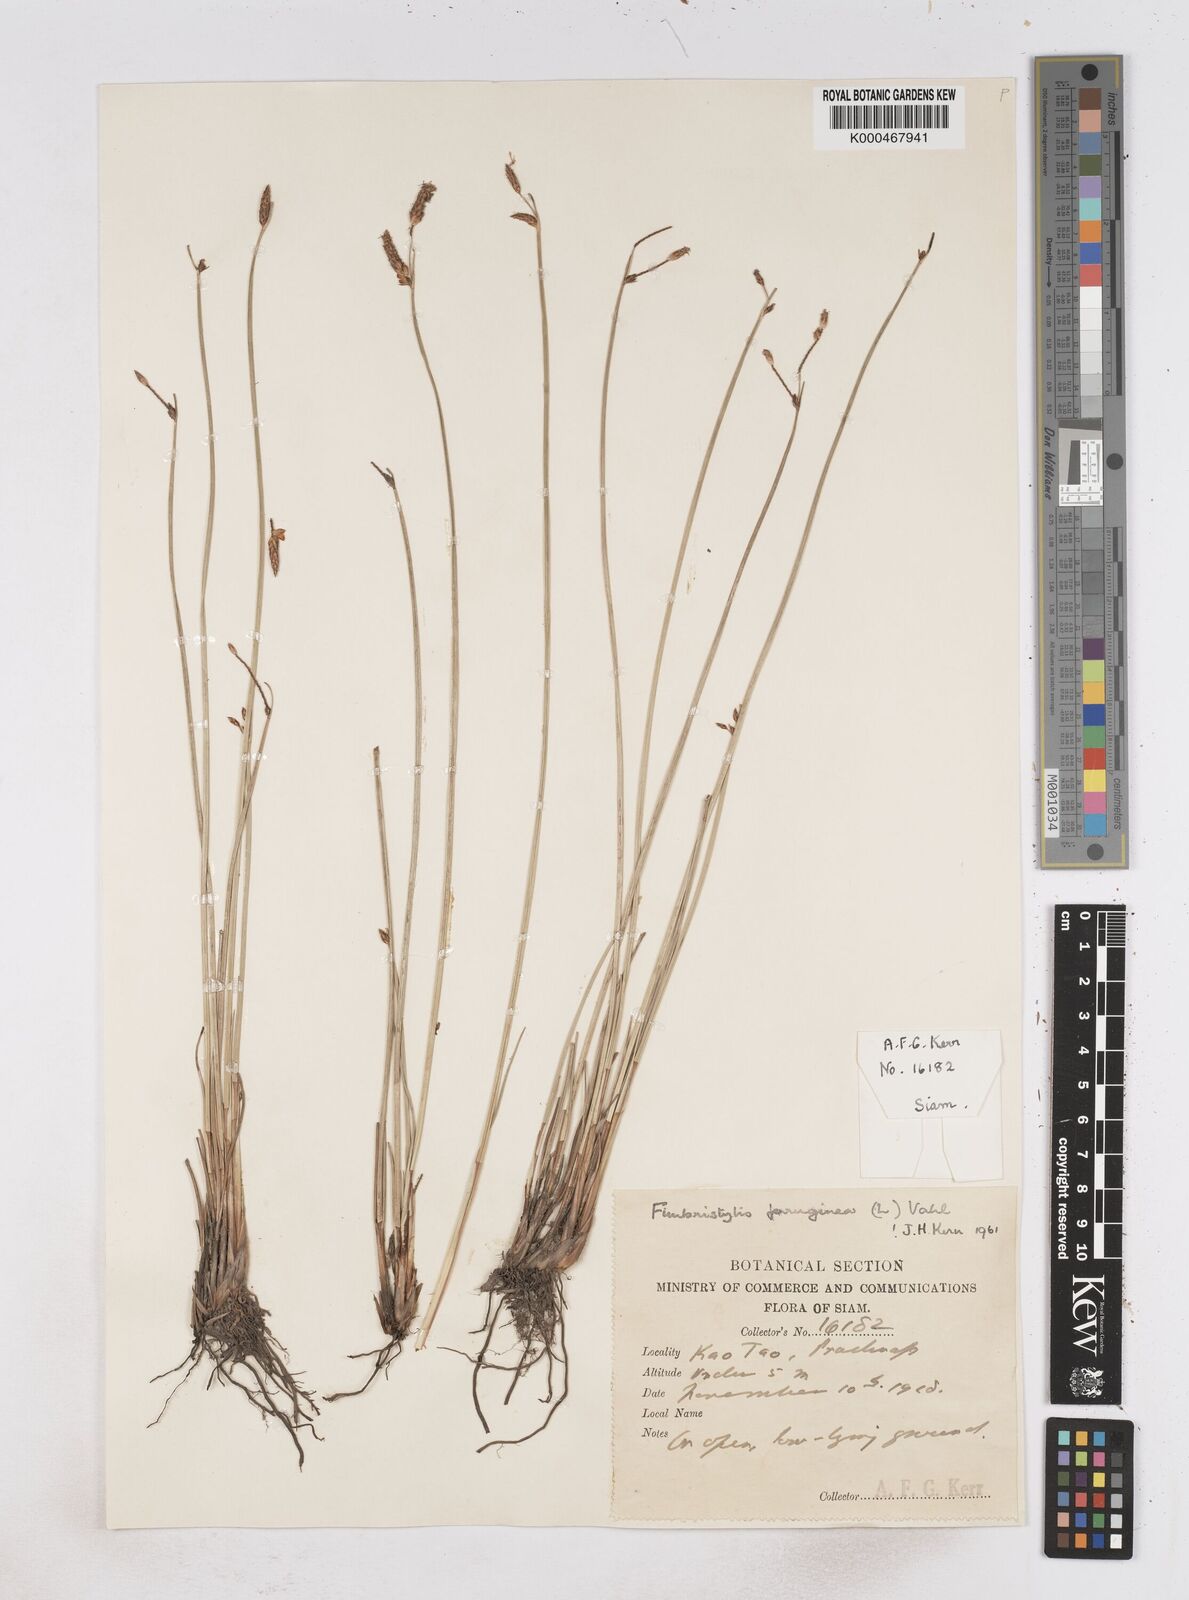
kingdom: Plantae
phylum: Tracheophyta
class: Liliopsida
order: Poales
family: Cyperaceae
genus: Fimbristylis
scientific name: Fimbristylis ferruginea
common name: West indian fimbry
